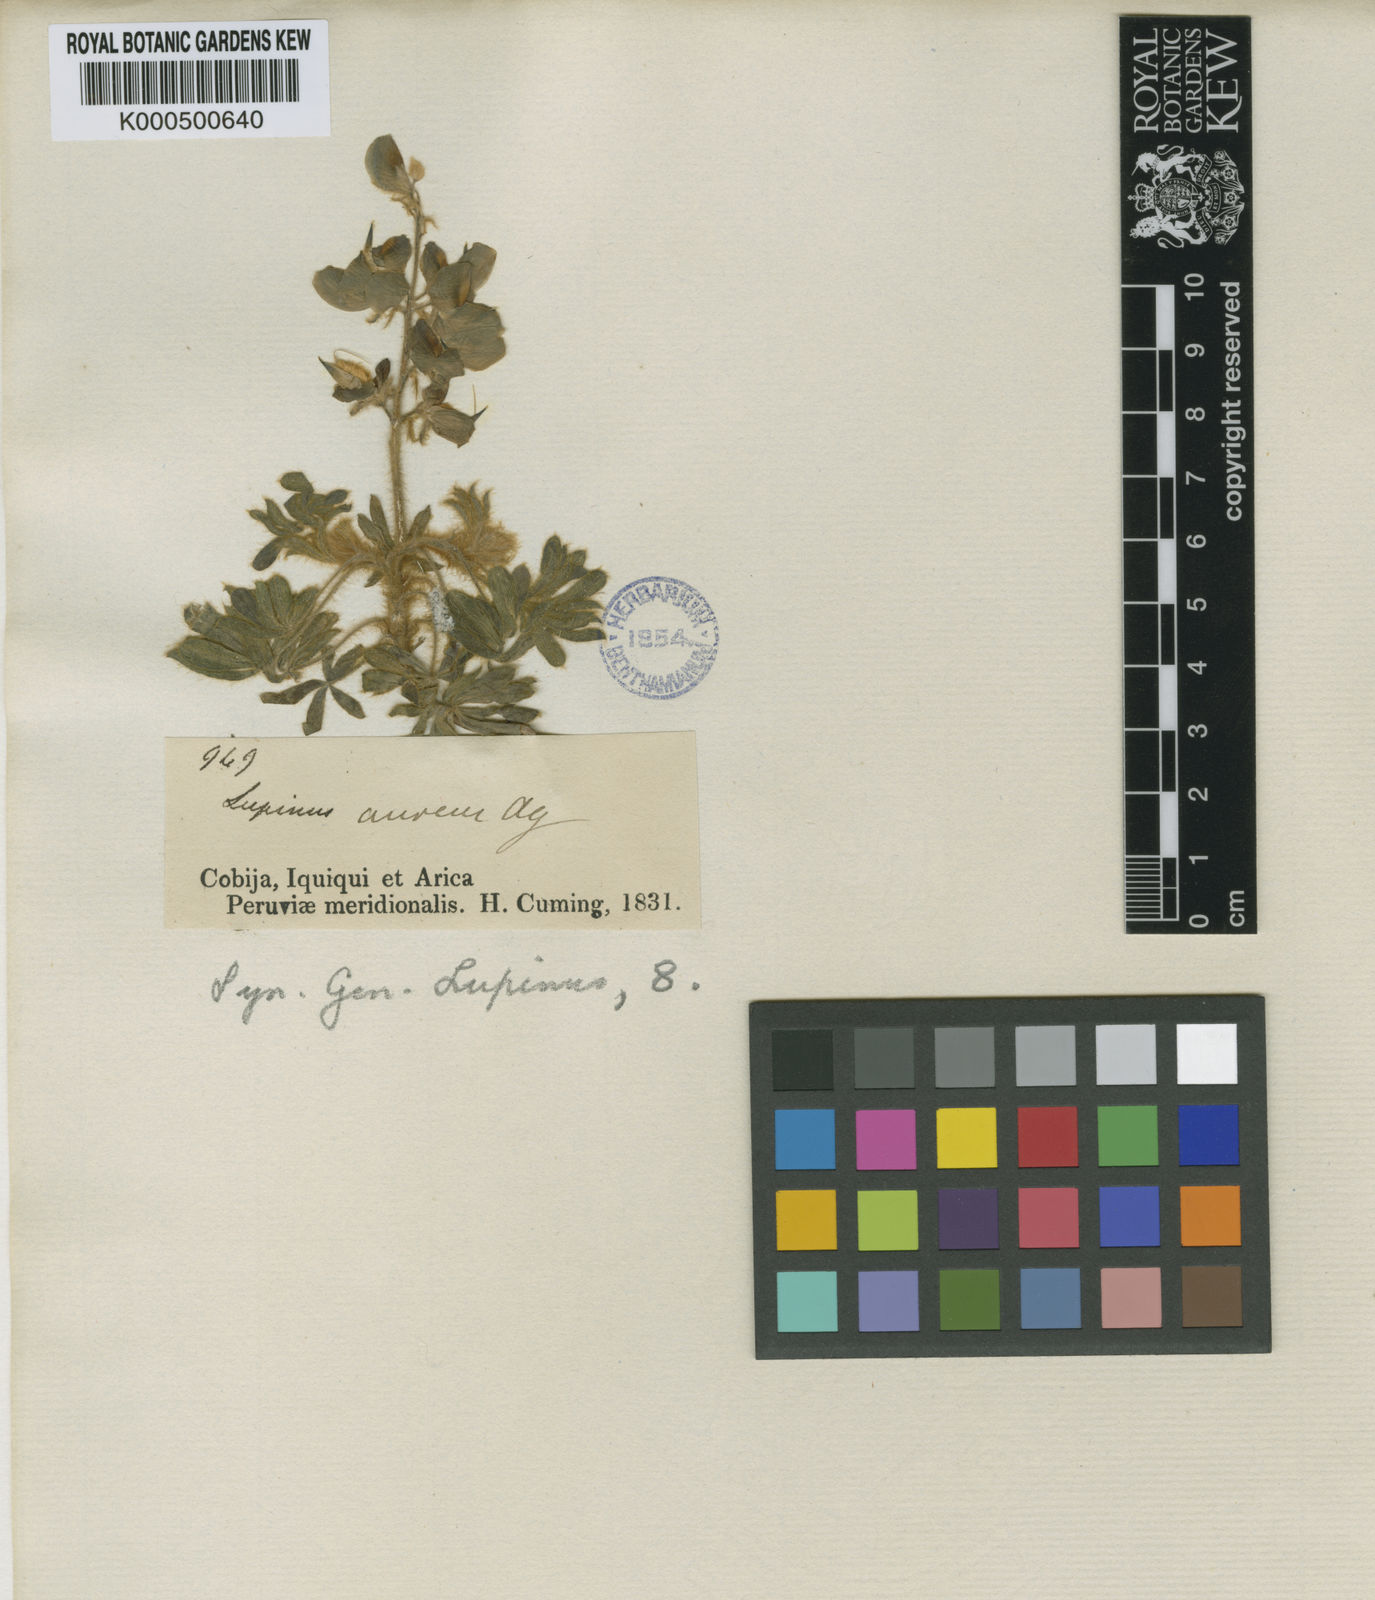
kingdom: Plantae
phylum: Tracheophyta
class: Magnoliopsida
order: Fabales
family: Fabaceae
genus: Lupinus
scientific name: Lupinus aureus
